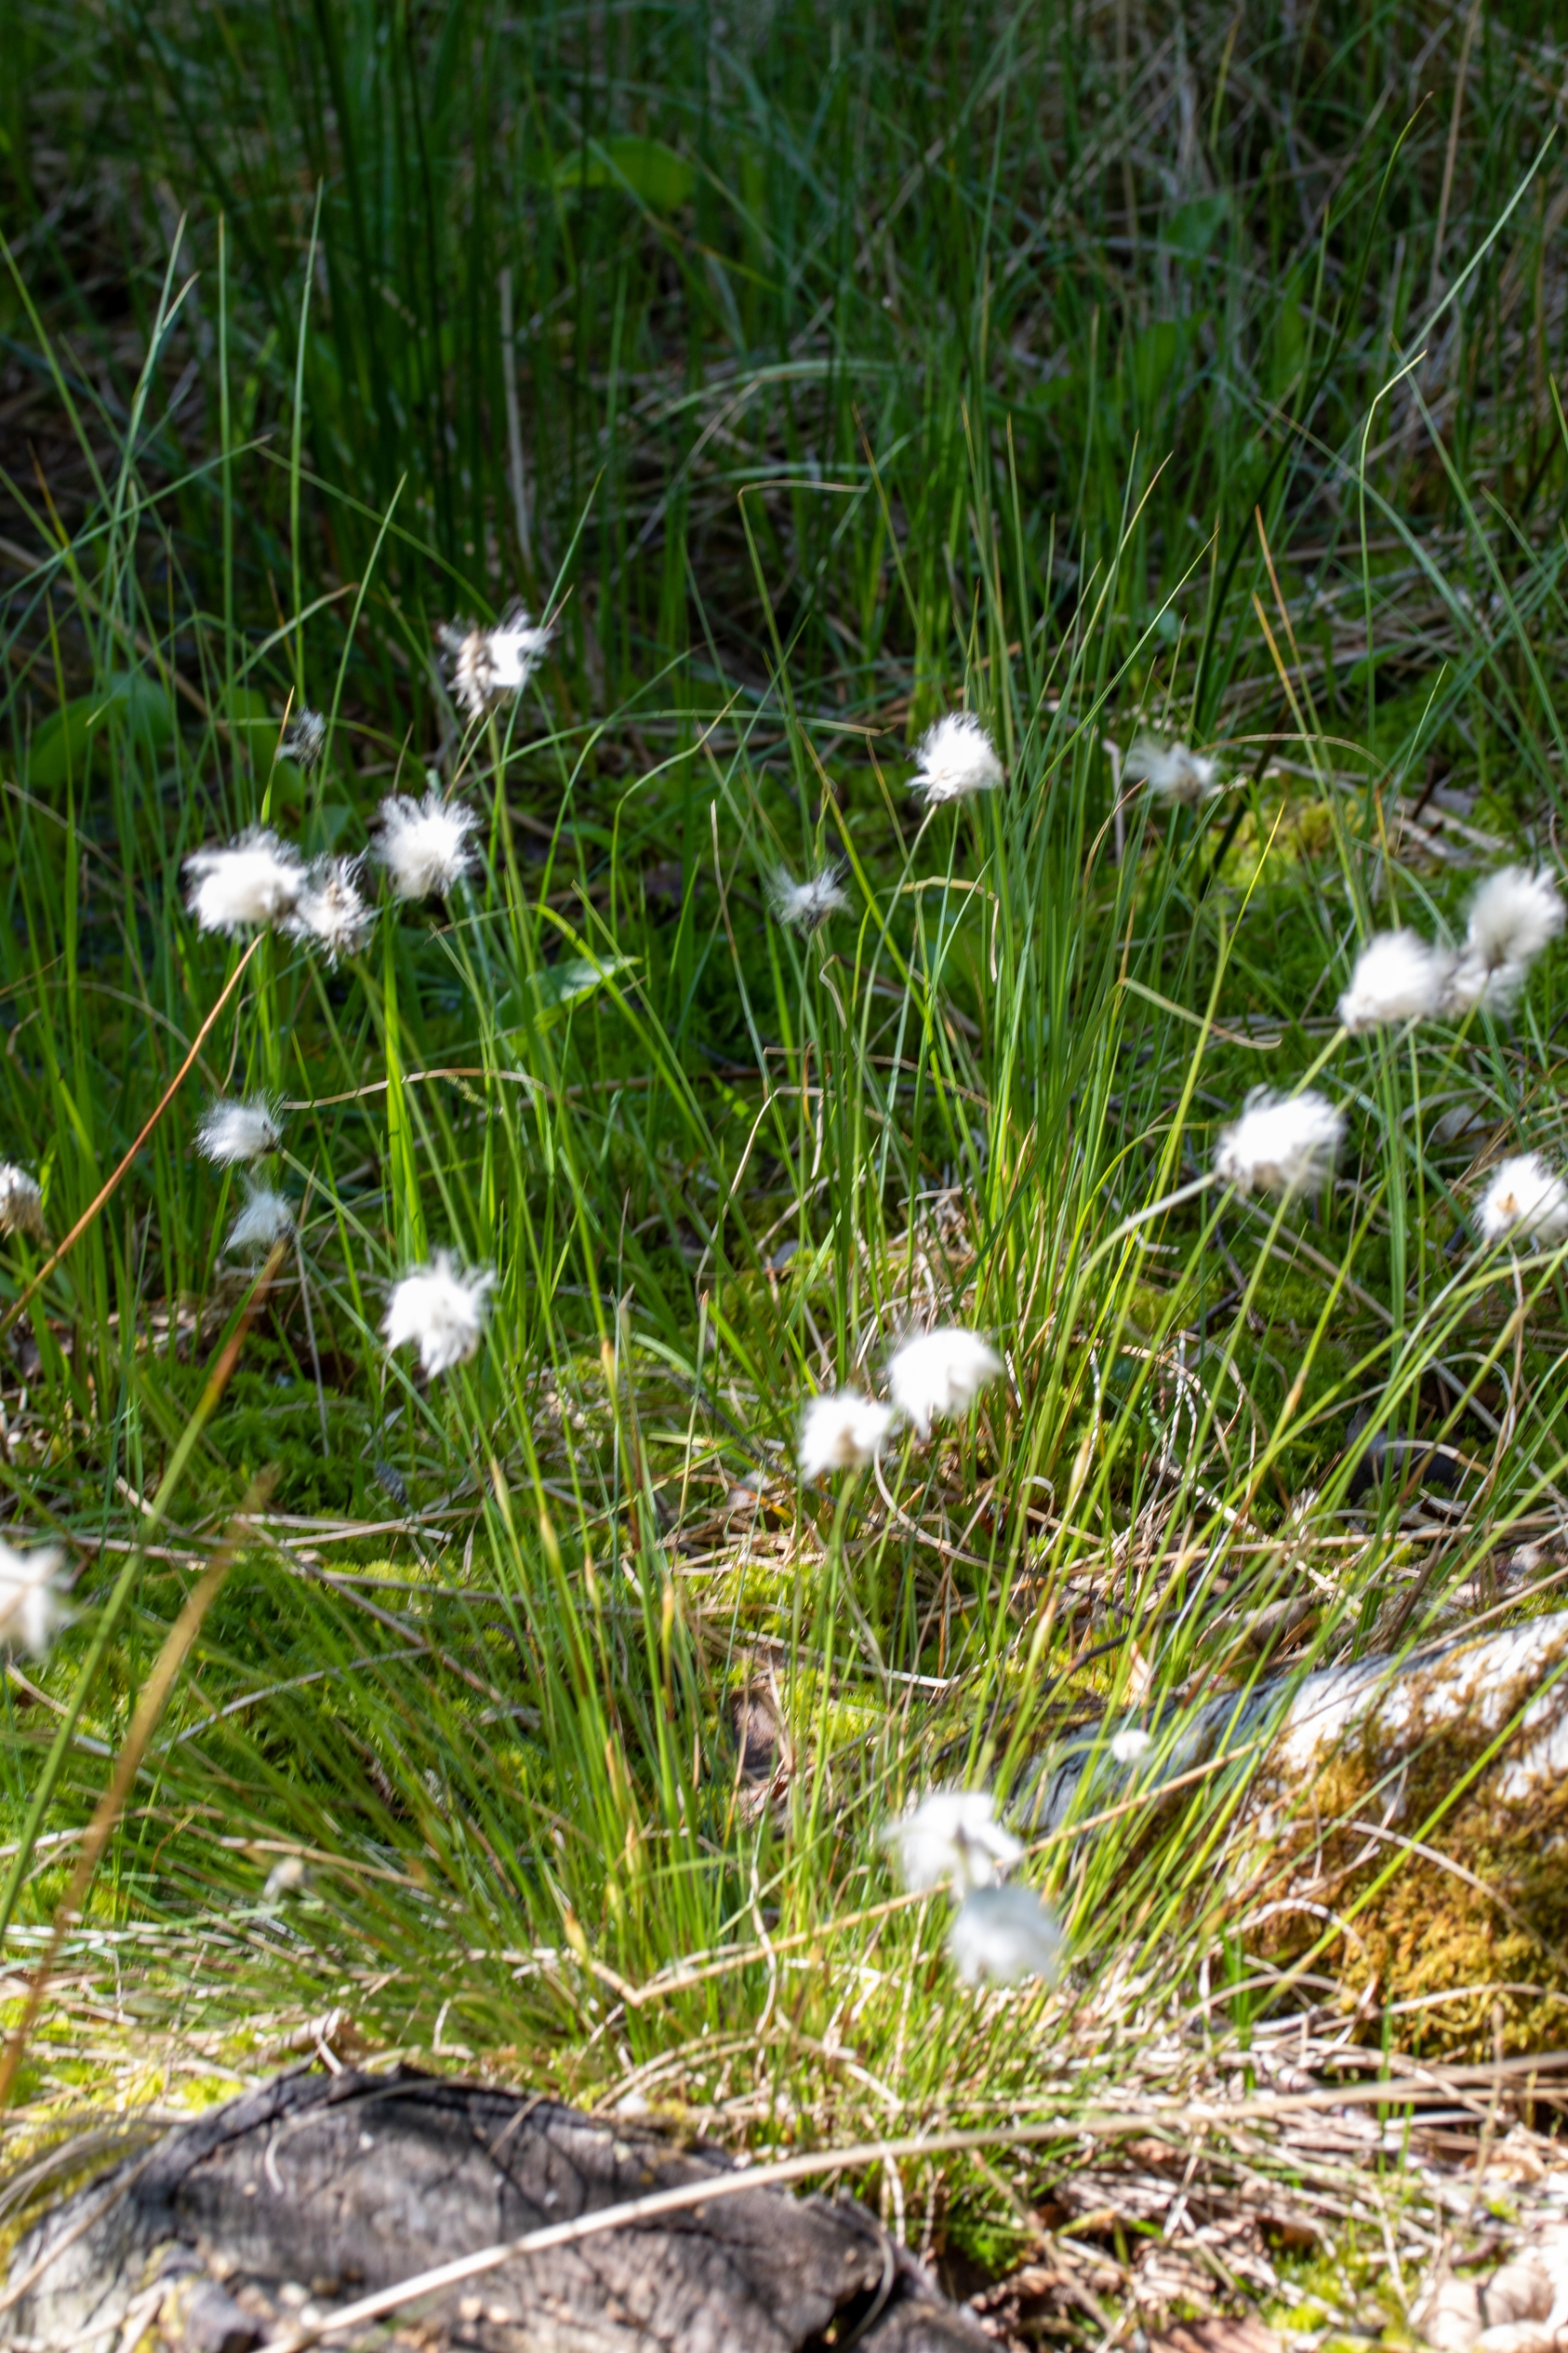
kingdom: Plantae
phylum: Tracheophyta
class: Liliopsida
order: Poales
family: Cyperaceae
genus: Eriophorum
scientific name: Eriophorum vaginatum
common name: Tue-kæruld
